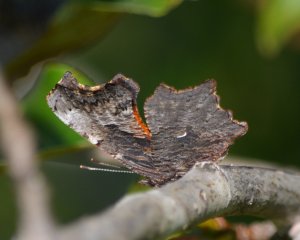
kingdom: Animalia
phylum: Arthropoda
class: Insecta
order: Lepidoptera
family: Nymphalidae
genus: Polygonia
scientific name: Polygonia progne
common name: Gray Comma
